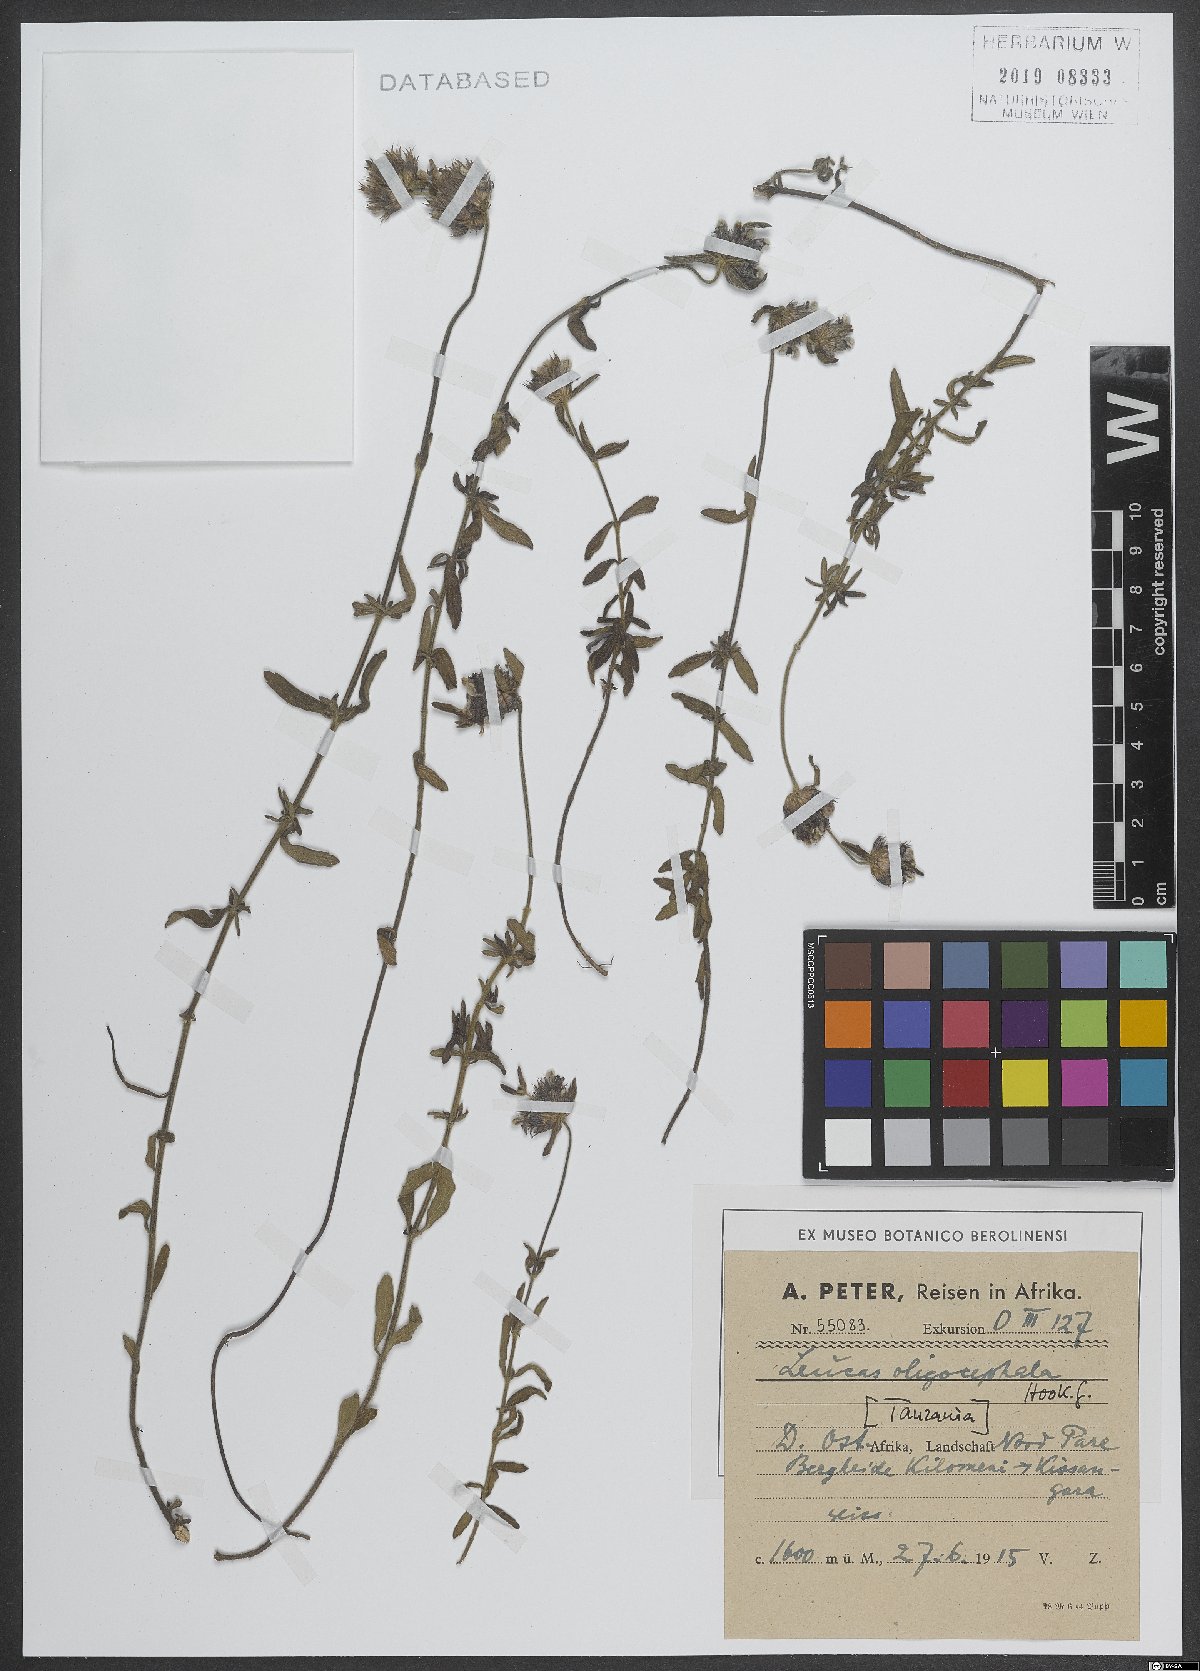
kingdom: Plantae
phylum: Tracheophyta
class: Magnoliopsida
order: Lamiales
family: Lamiaceae
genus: Leucas
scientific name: Leucas oligocephala
